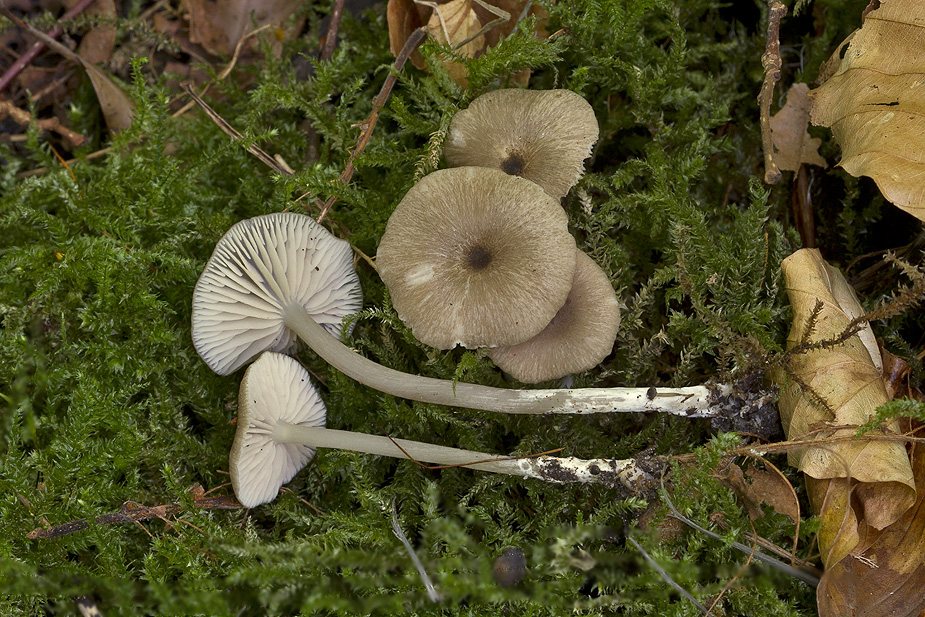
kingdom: Fungi
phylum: Basidiomycota
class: Agaricomycetes
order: Agaricales
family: Entolomataceae
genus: Entoloma
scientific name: Entoloma
